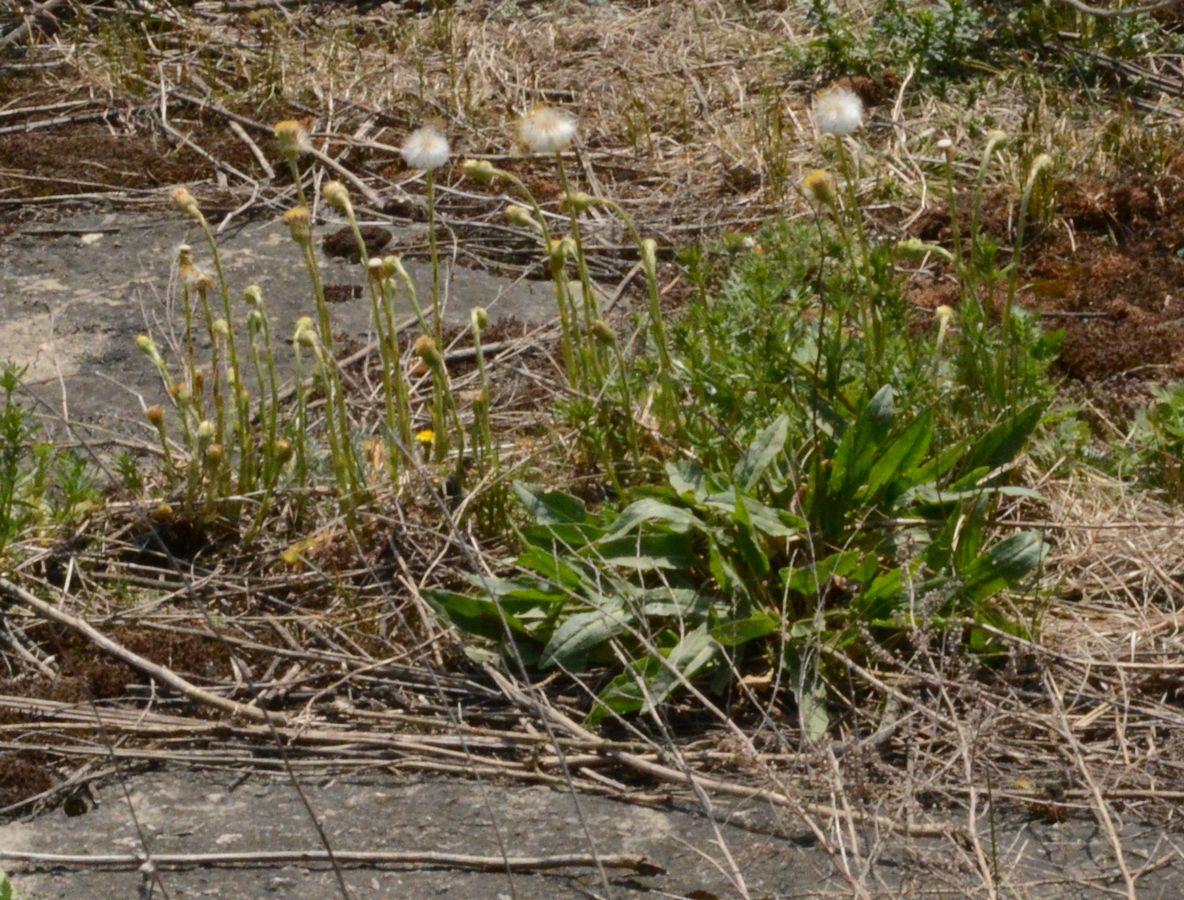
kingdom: Plantae
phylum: Tracheophyta
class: Magnoliopsida
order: Asterales
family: Asteraceae
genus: Tussilago
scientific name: Tussilago farfara
